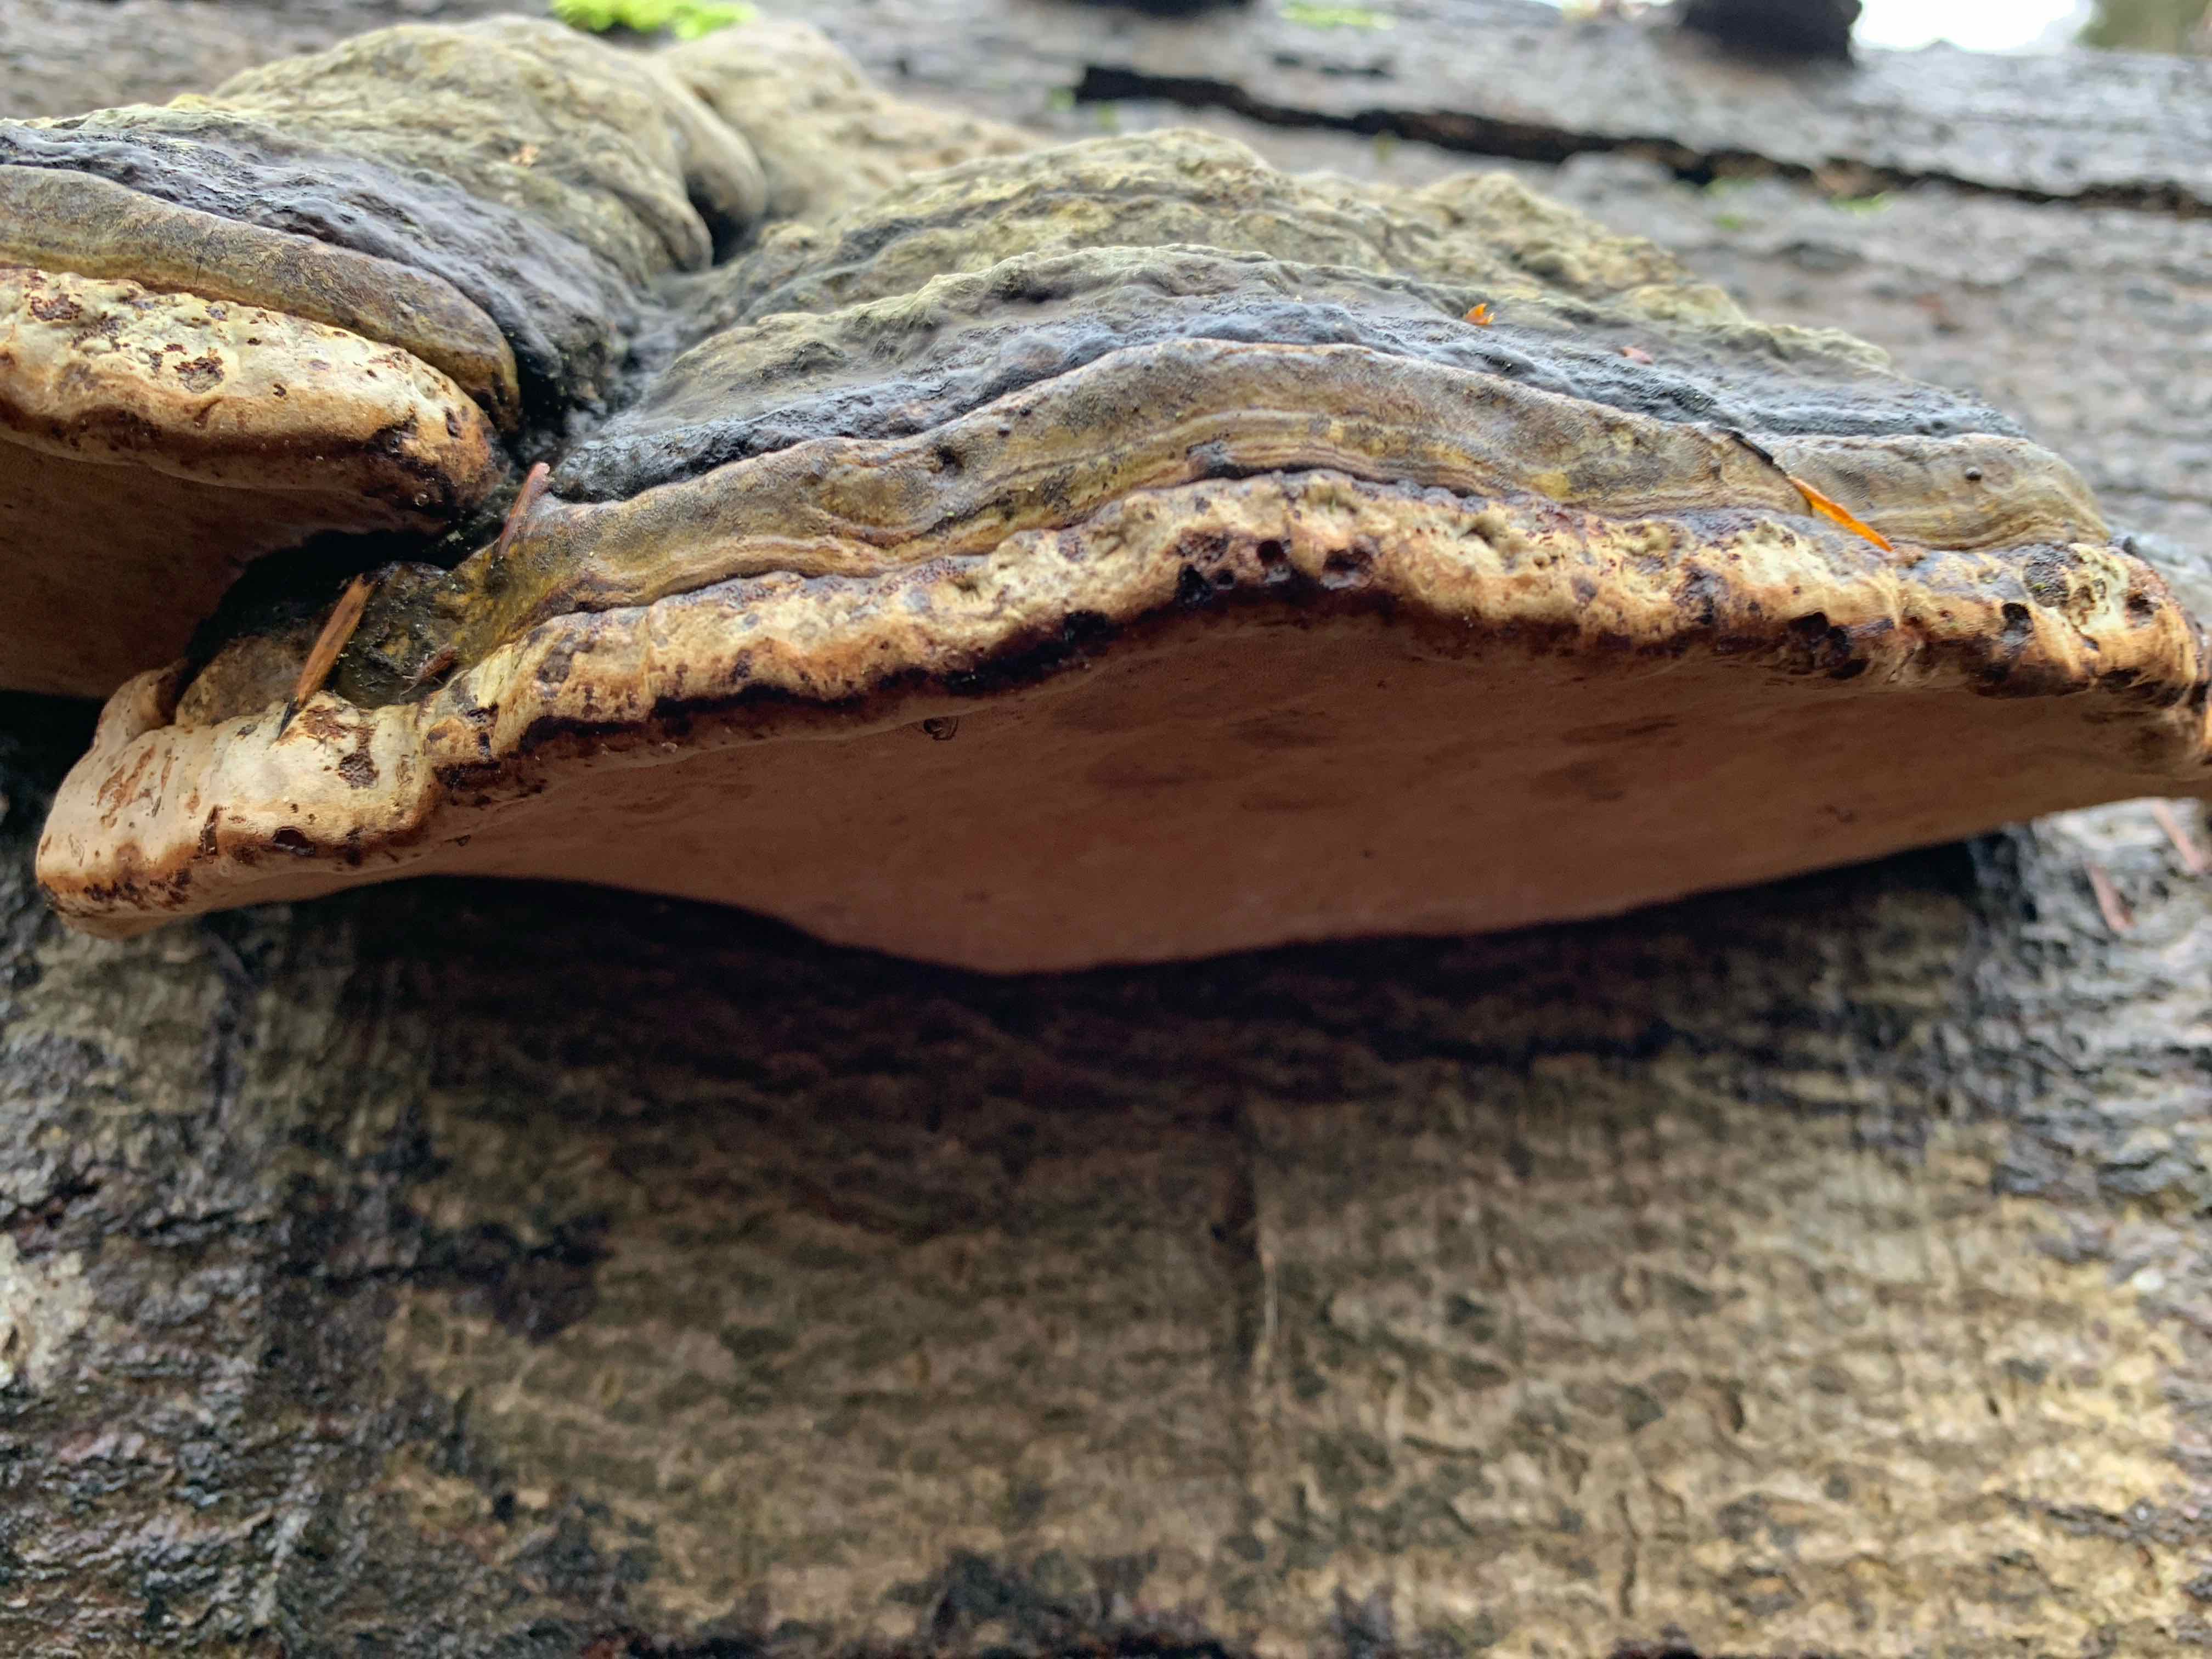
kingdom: Fungi
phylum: Basidiomycota
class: Agaricomycetes
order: Polyporales
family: Polyporaceae
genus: Fomes
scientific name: Fomes fomentarius
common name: tøndersvamp
